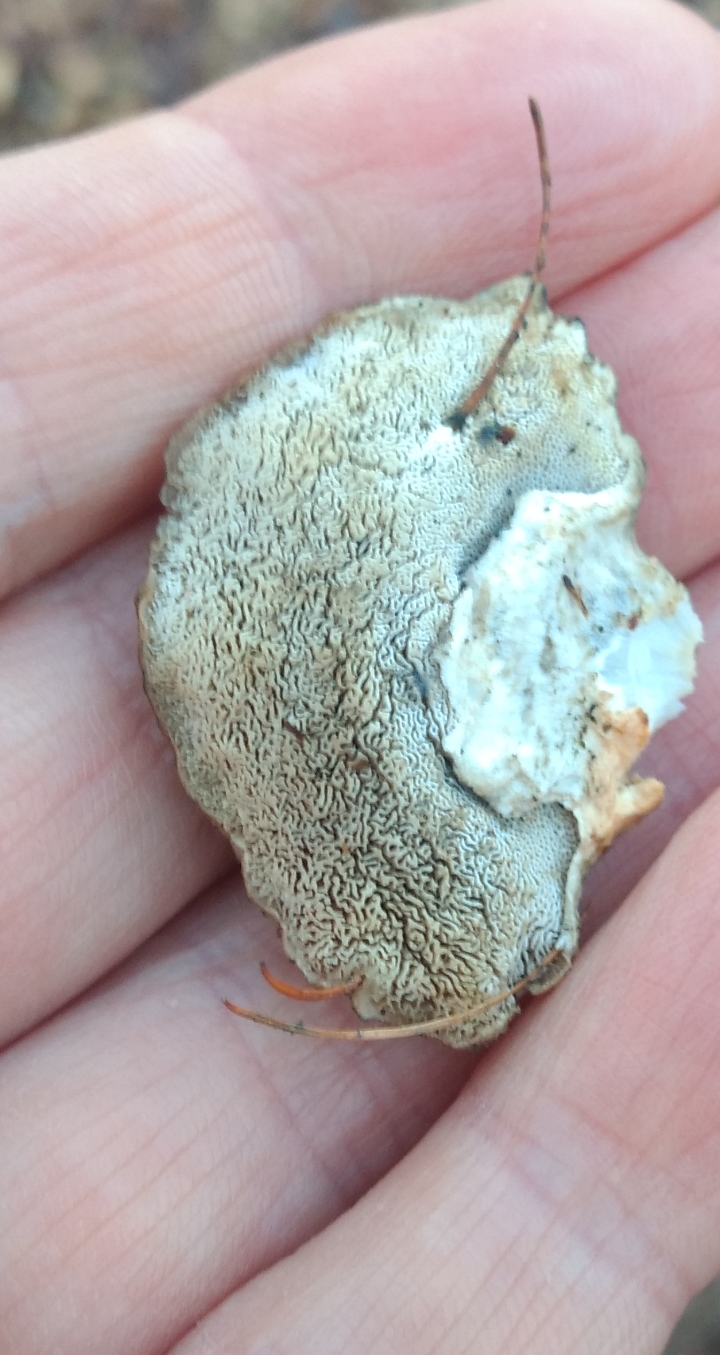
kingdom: Fungi
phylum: Basidiomycota
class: Agaricomycetes
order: Polyporales
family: Dacryobolaceae
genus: Postia
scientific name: Postia
